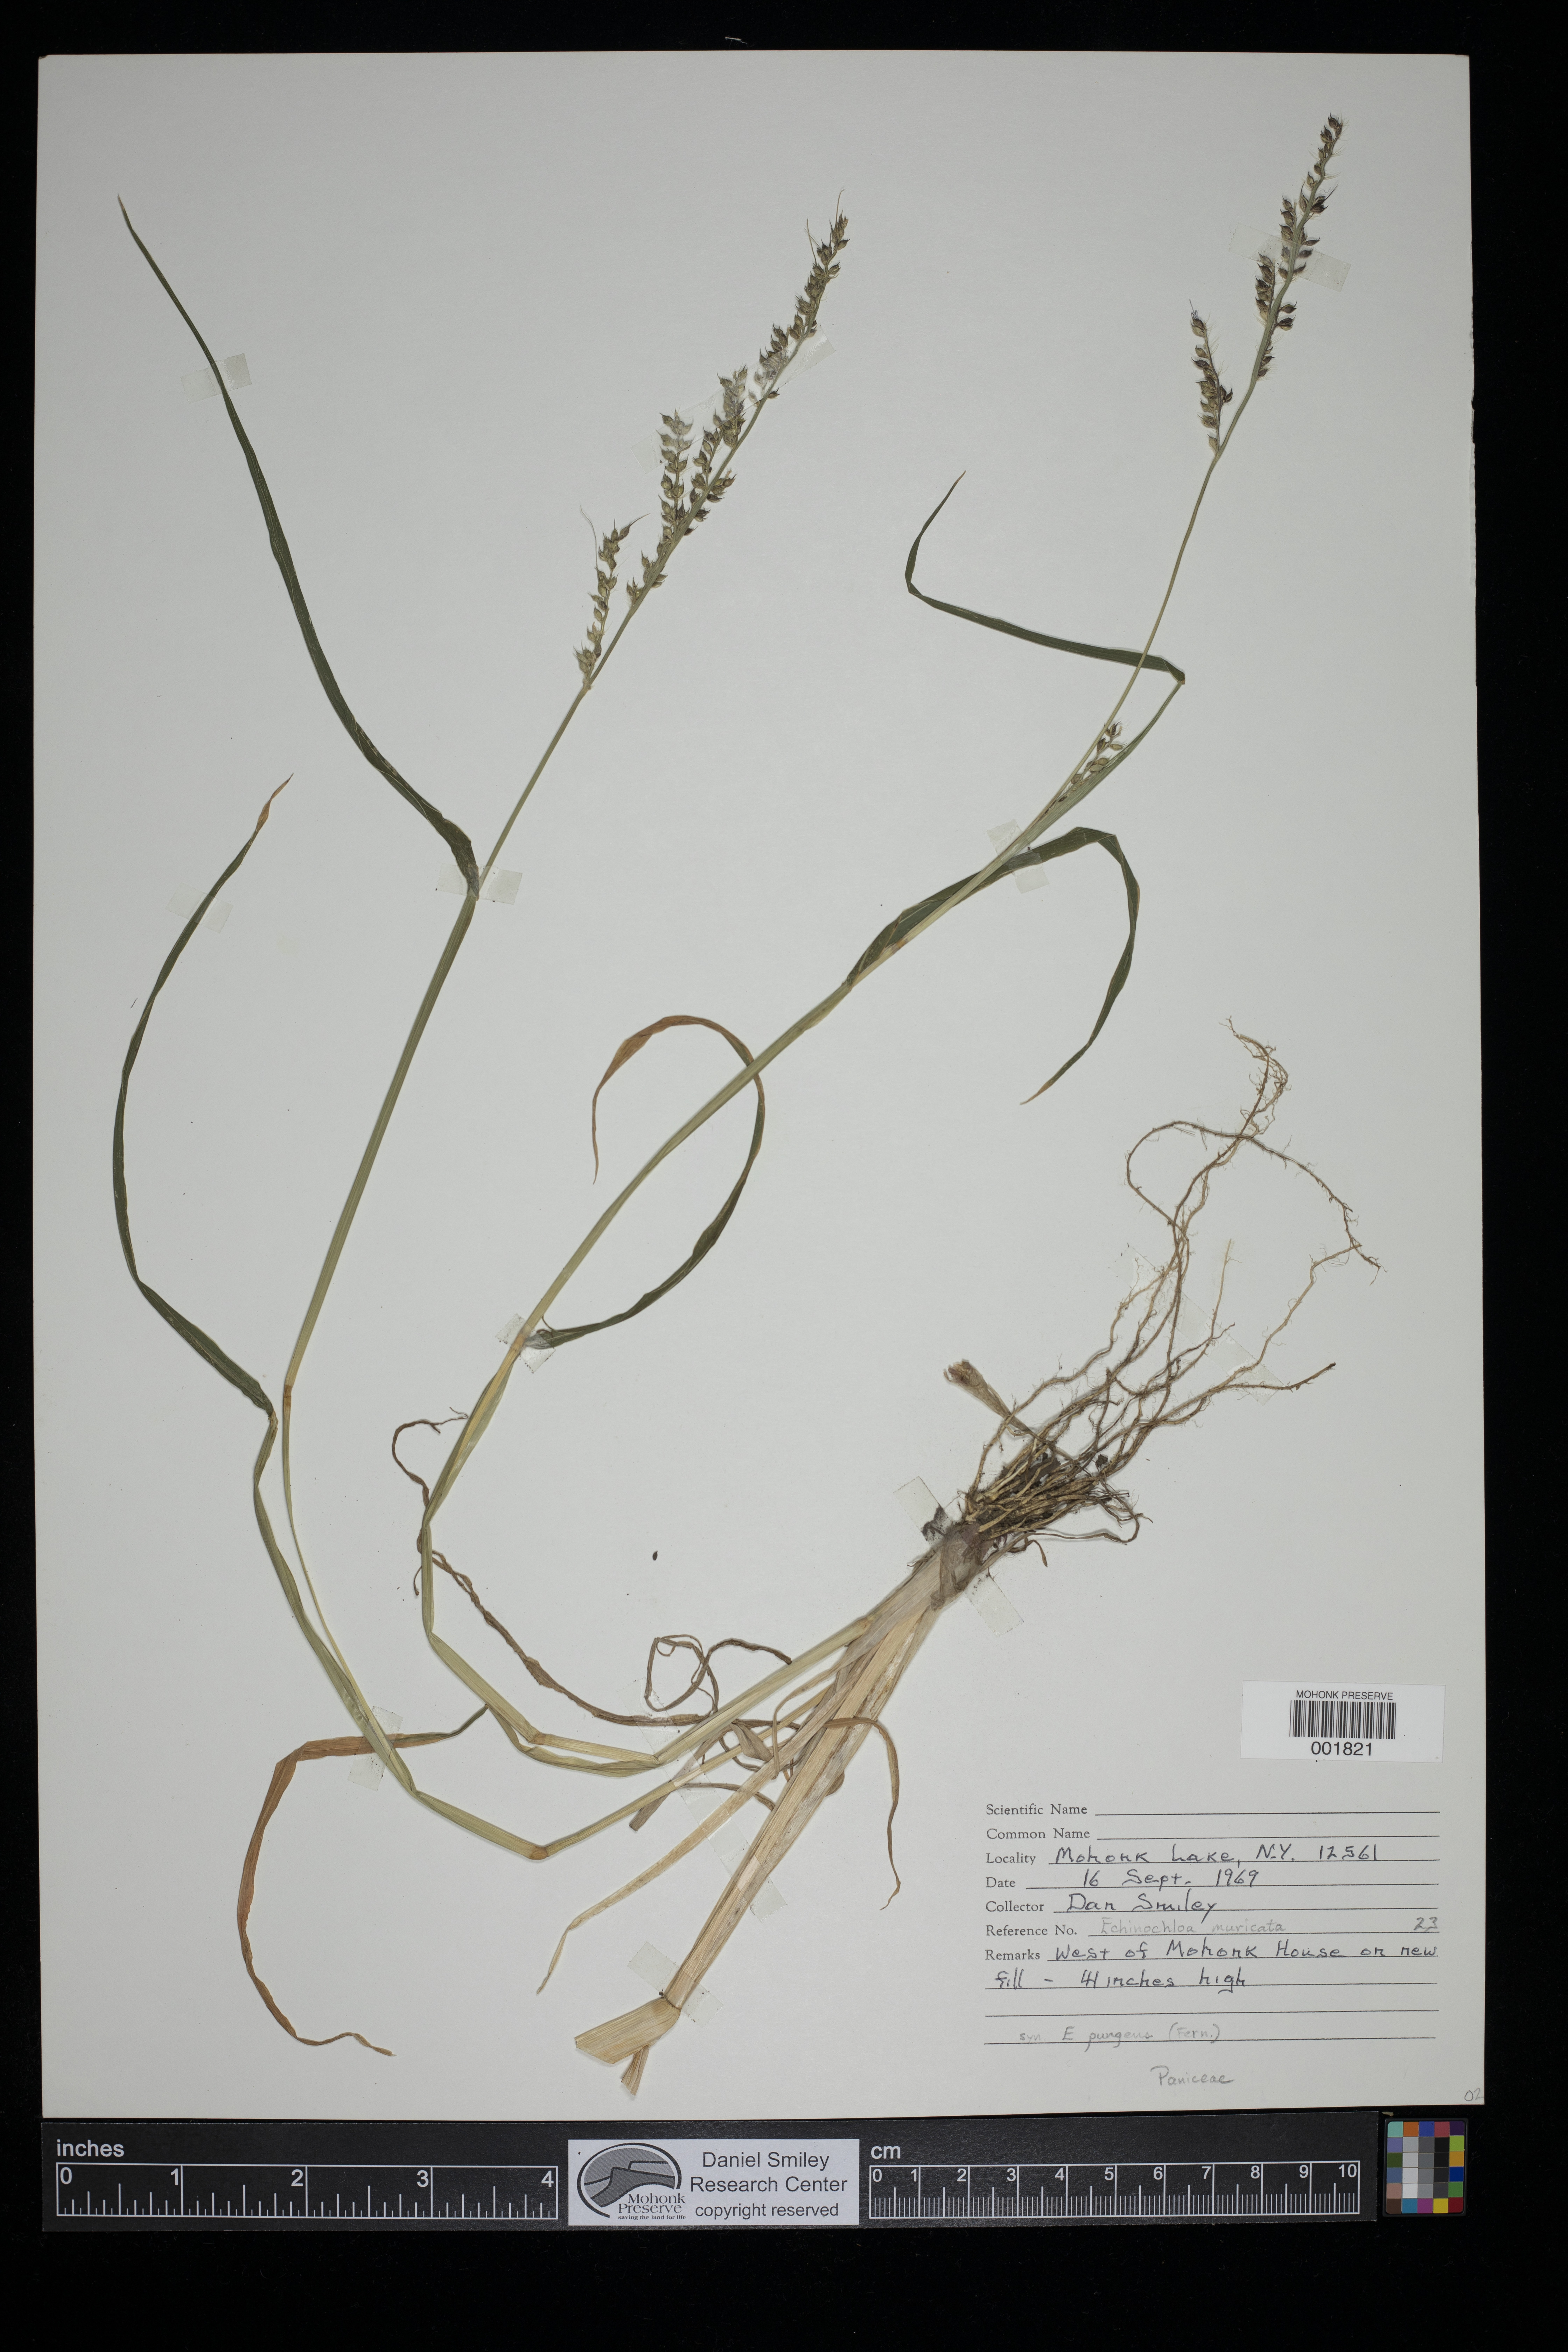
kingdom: Plantae
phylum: Tracheophyta
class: Liliopsida
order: Poales
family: Poaceae
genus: Echinochloa
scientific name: Echinochloa muricata
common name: American barnyard grass
